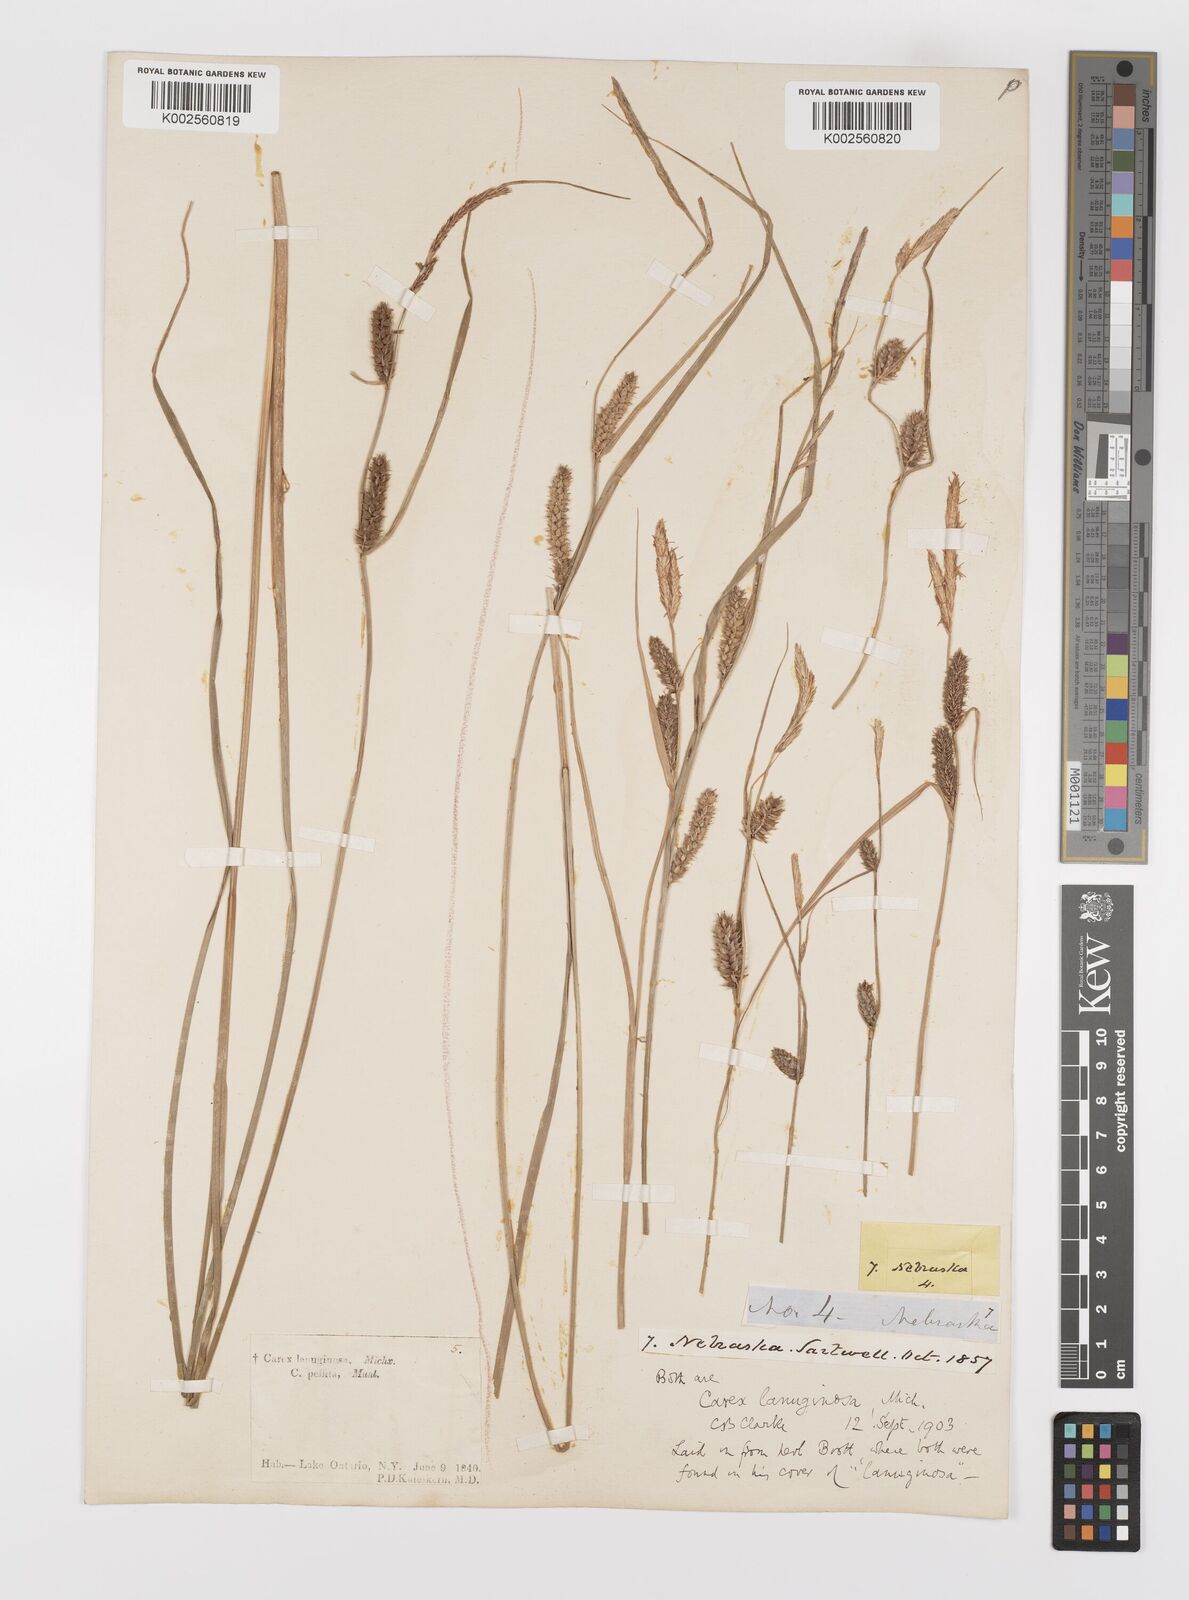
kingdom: Plantae
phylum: Tracheophyta
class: Liliopsida
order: Poales
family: Cyperaceae
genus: Carex
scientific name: Carex lasiocarpa
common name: Slender sedge
